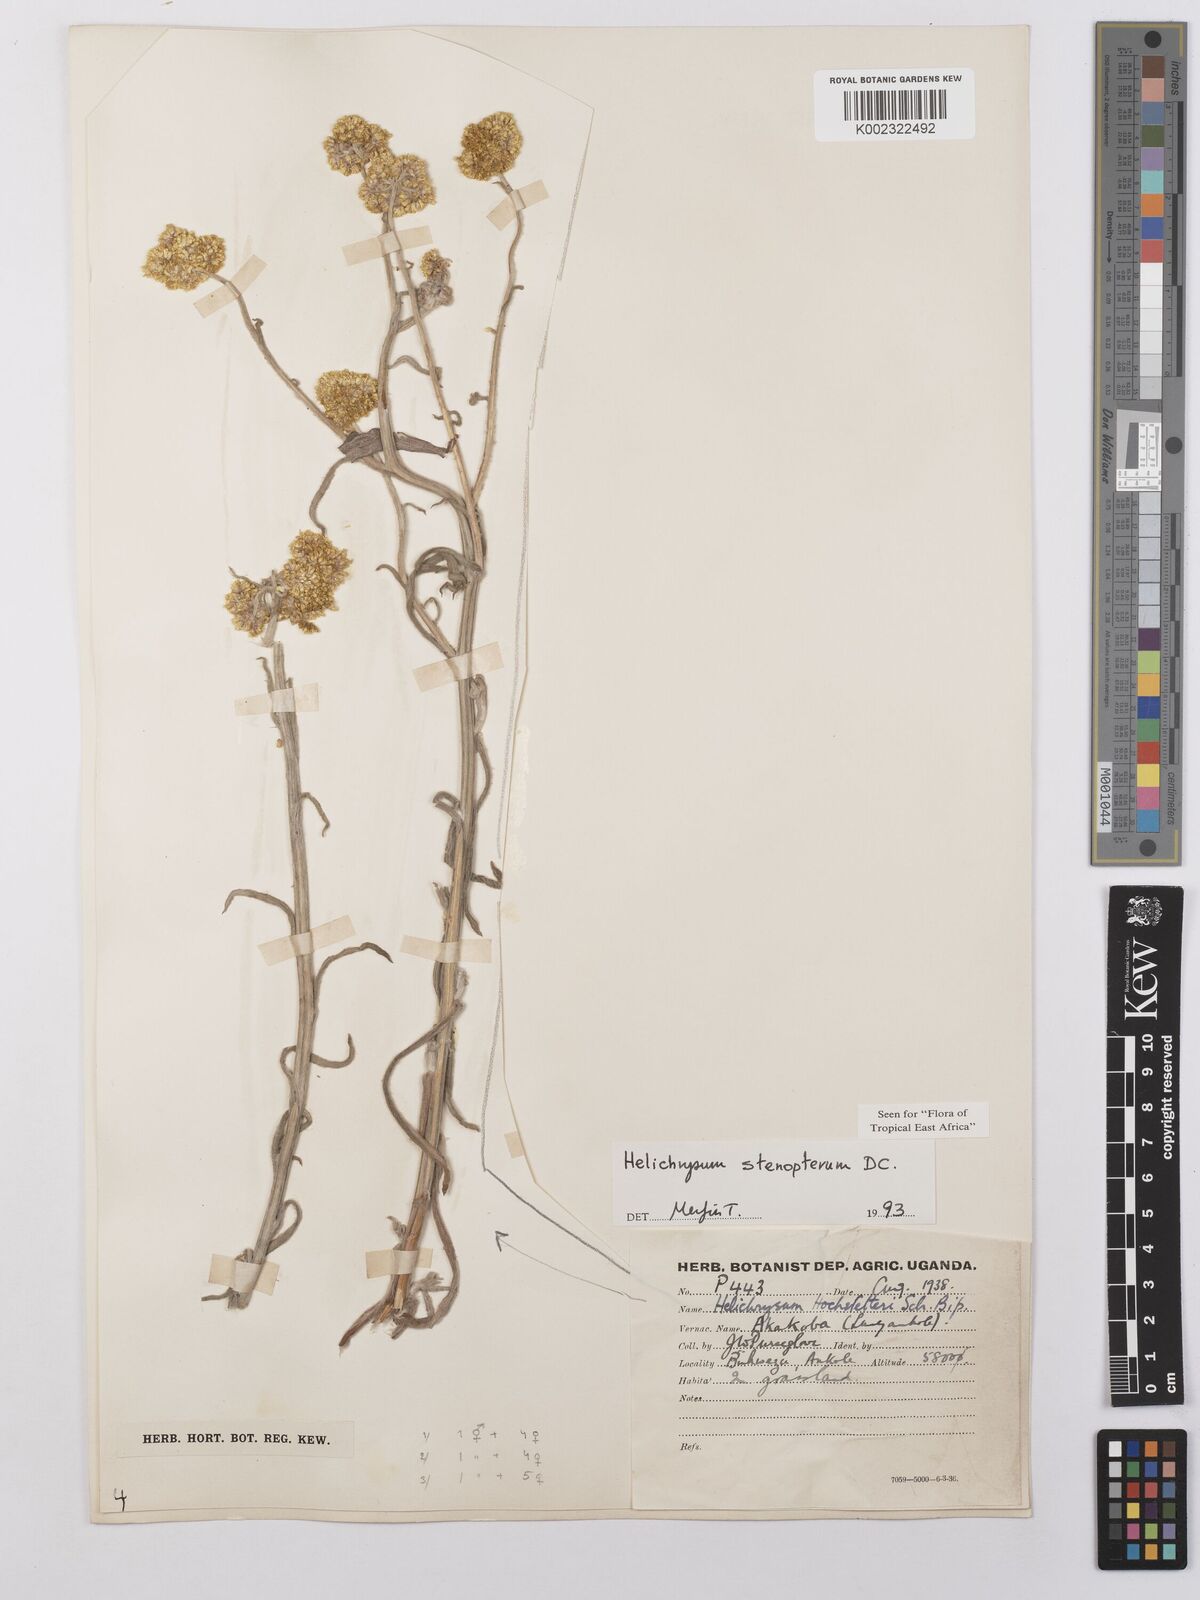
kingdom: Plantae
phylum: Tracheophyta
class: Magnoliopsida
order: Asterales
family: Asteraceae
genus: Helichrysum
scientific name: Helichrysum stenopterum
